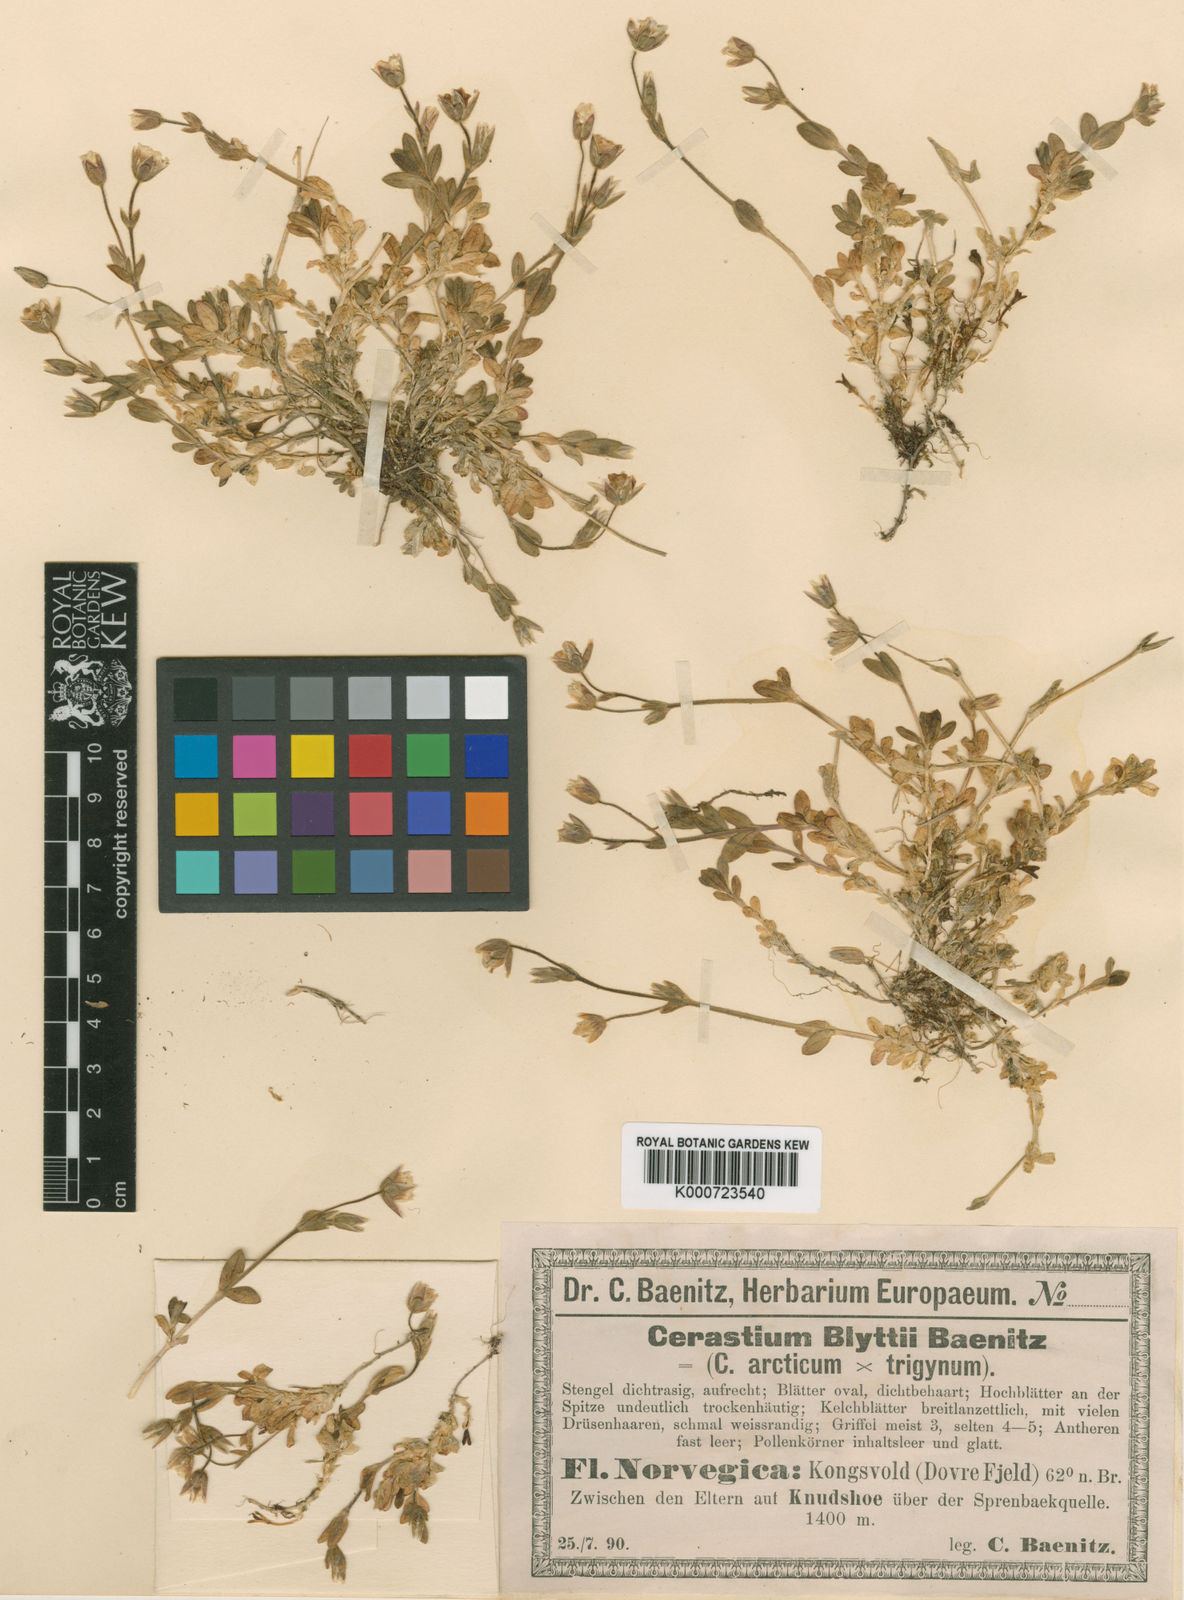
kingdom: Plantae
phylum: Tracheophyta
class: Magnoliopsida
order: Caryophyllales
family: Caryophyllaceae
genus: Cerastium
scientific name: Cerastium blyttii
